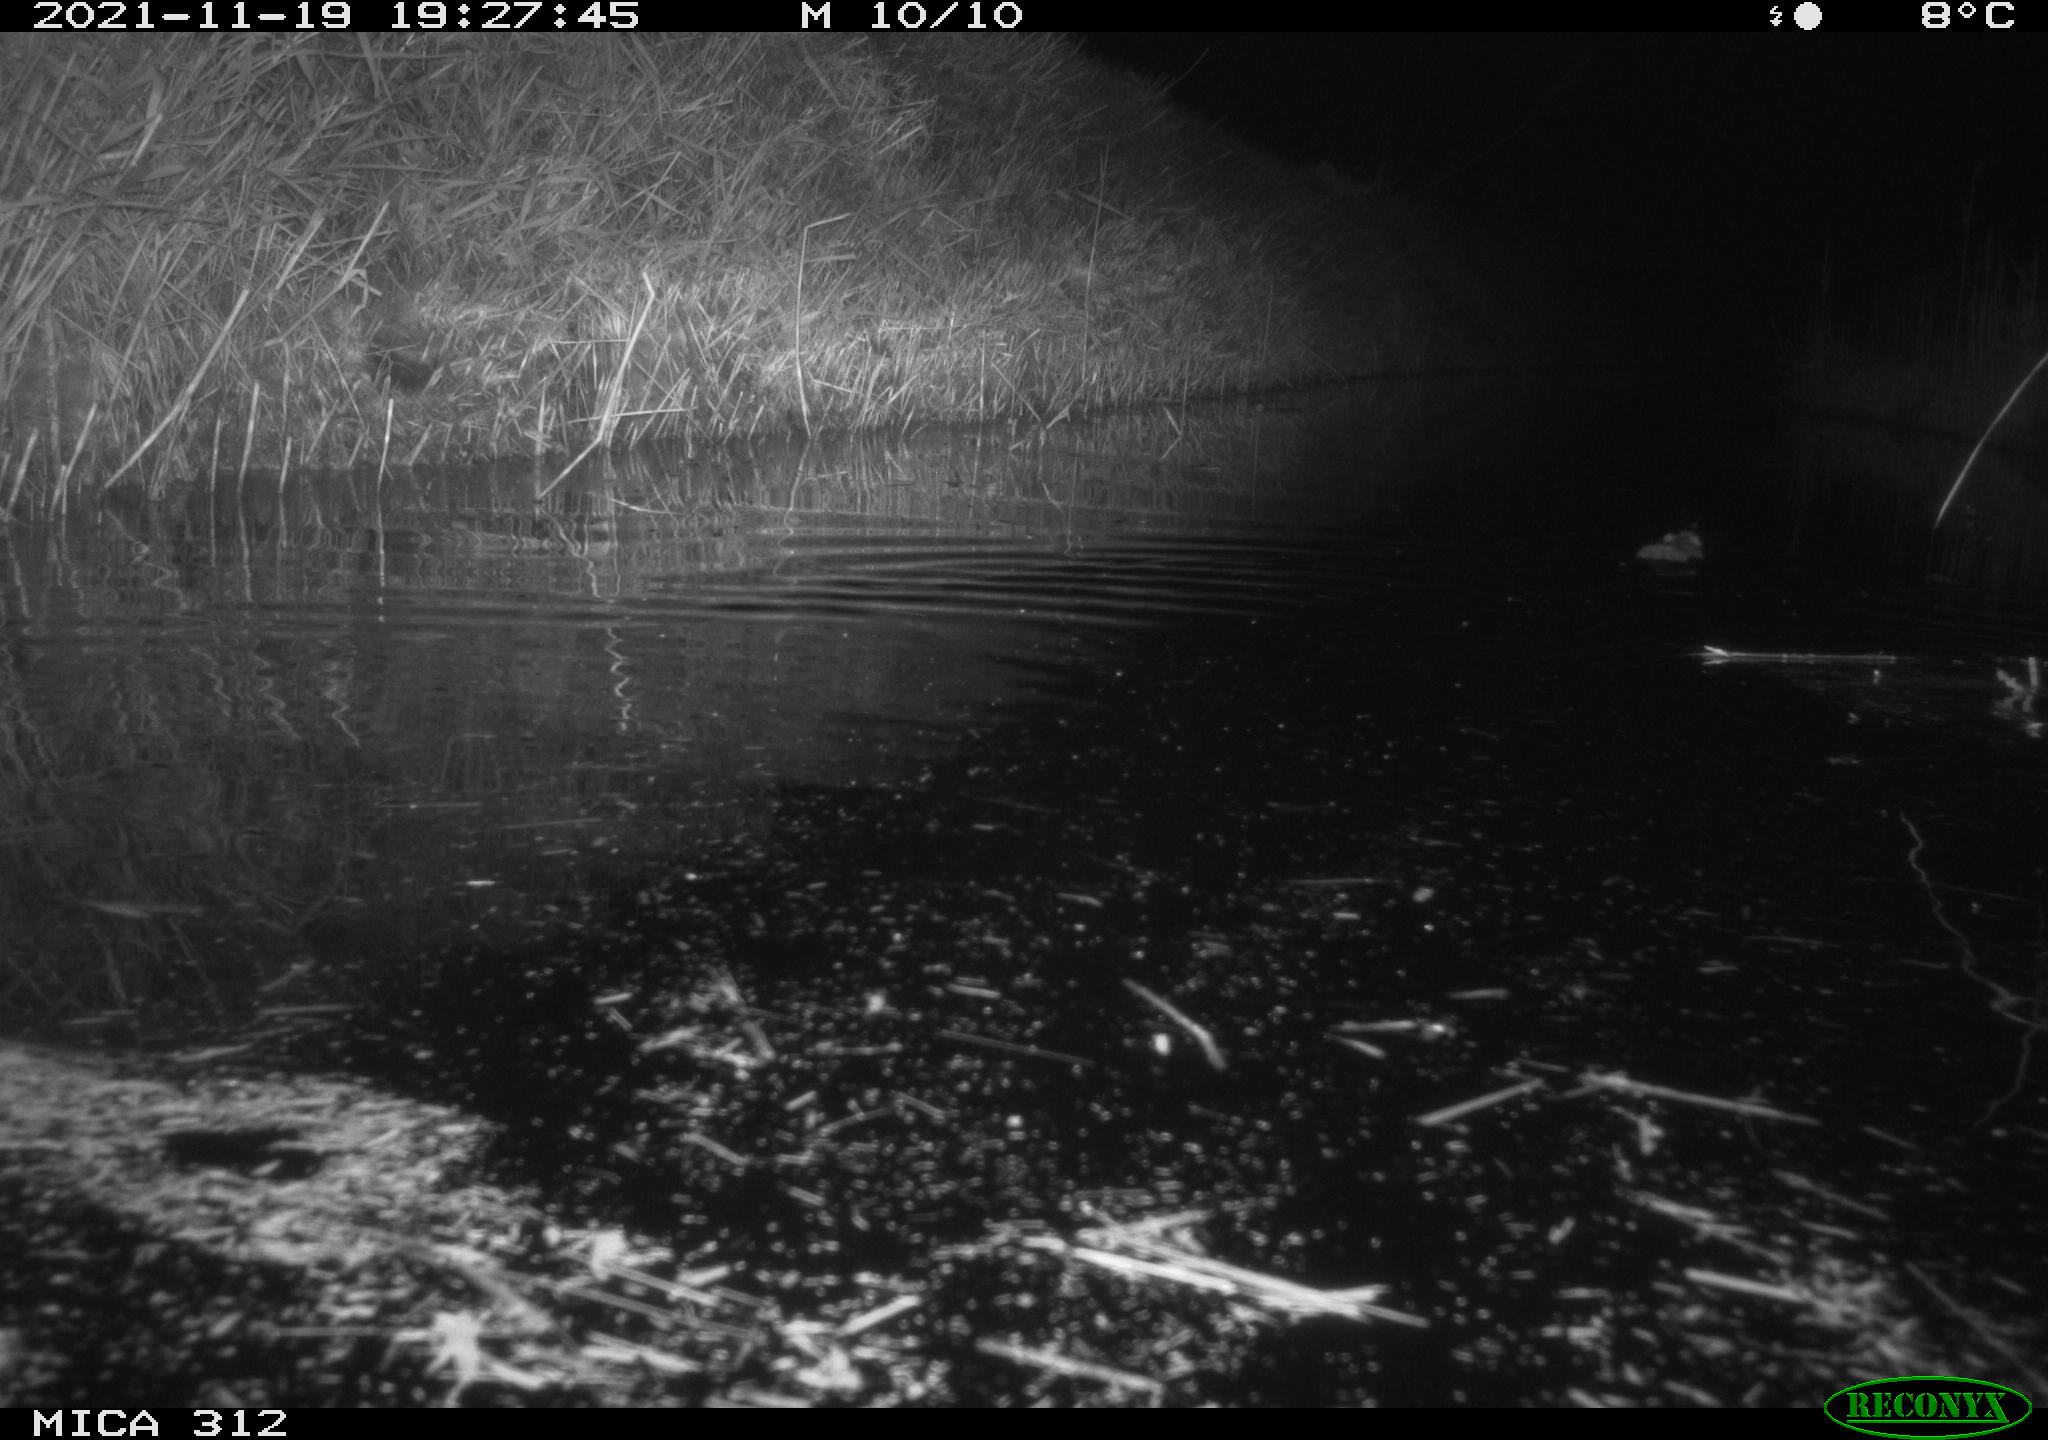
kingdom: Animalia
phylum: Chordata
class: Mammalia
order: Rodentia
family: Muridae
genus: Rattus
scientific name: Rattus norvegicus
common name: Brown rat
